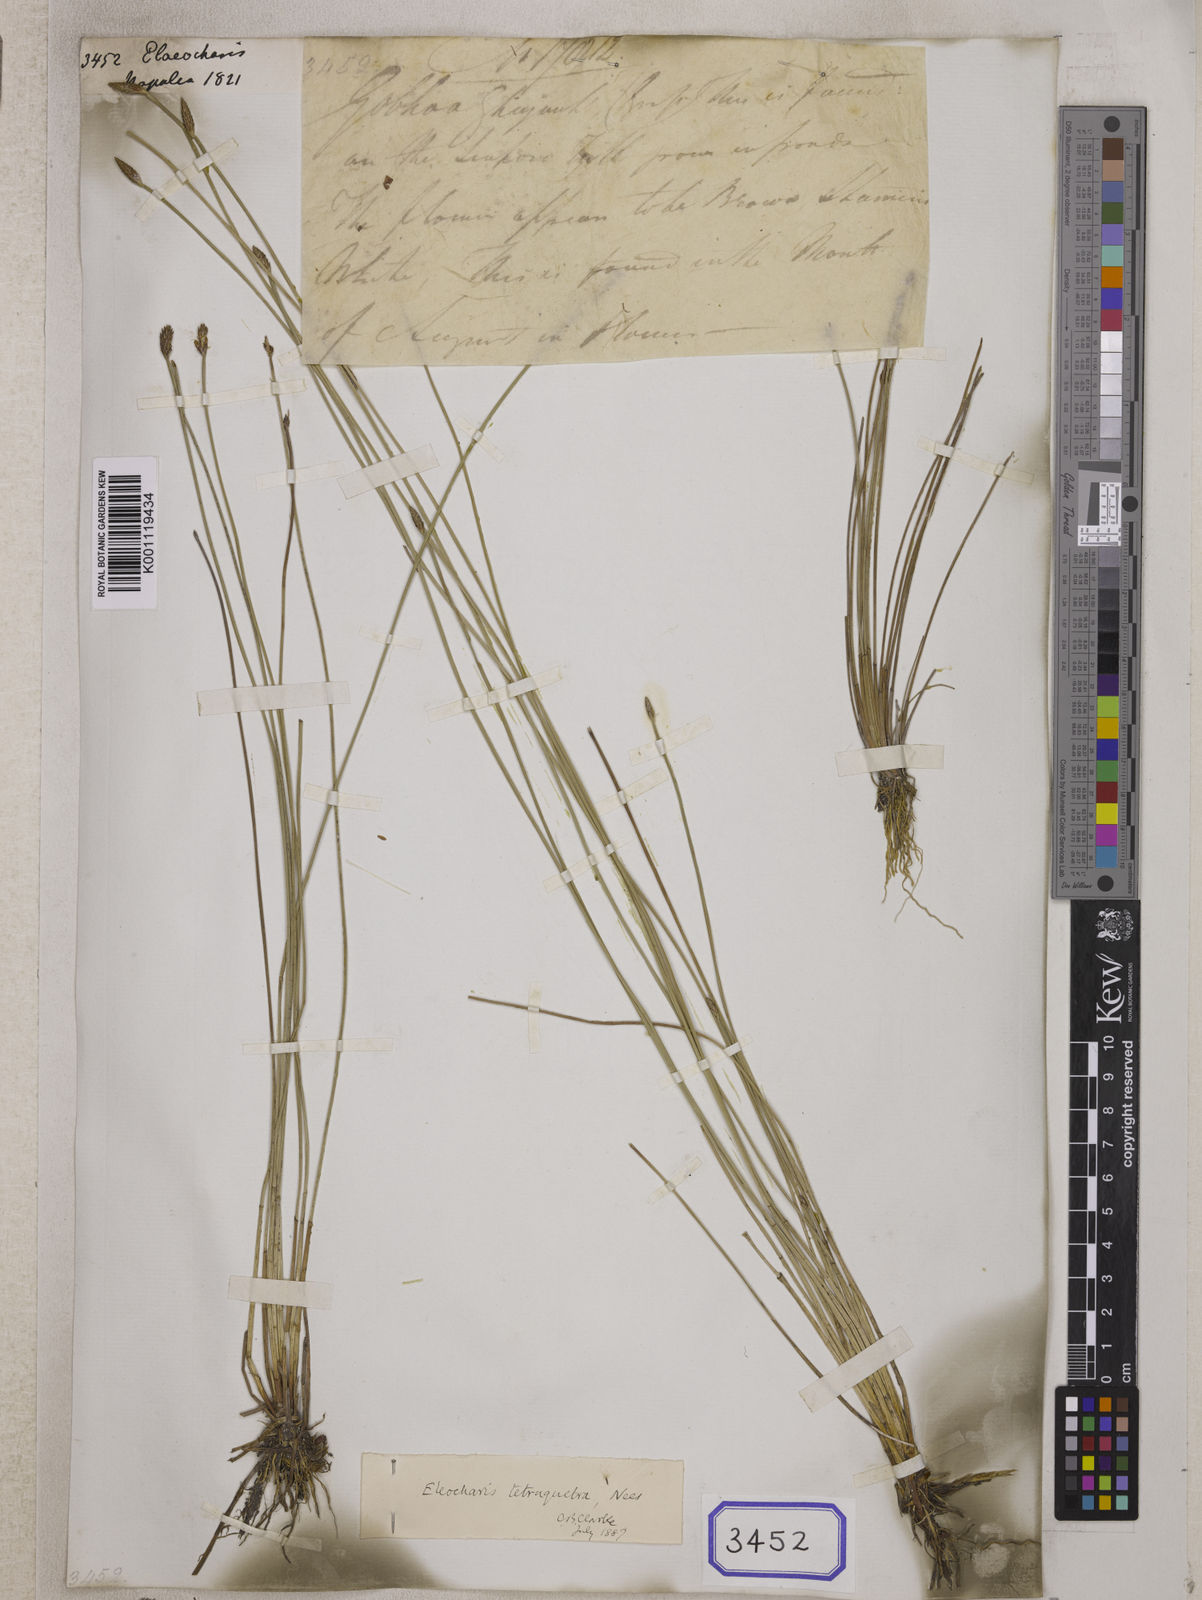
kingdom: Plantae
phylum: Tracheophyta
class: Liliopsida
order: Poales
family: Cyperaceae
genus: Eleocharis
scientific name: Eleocharis
